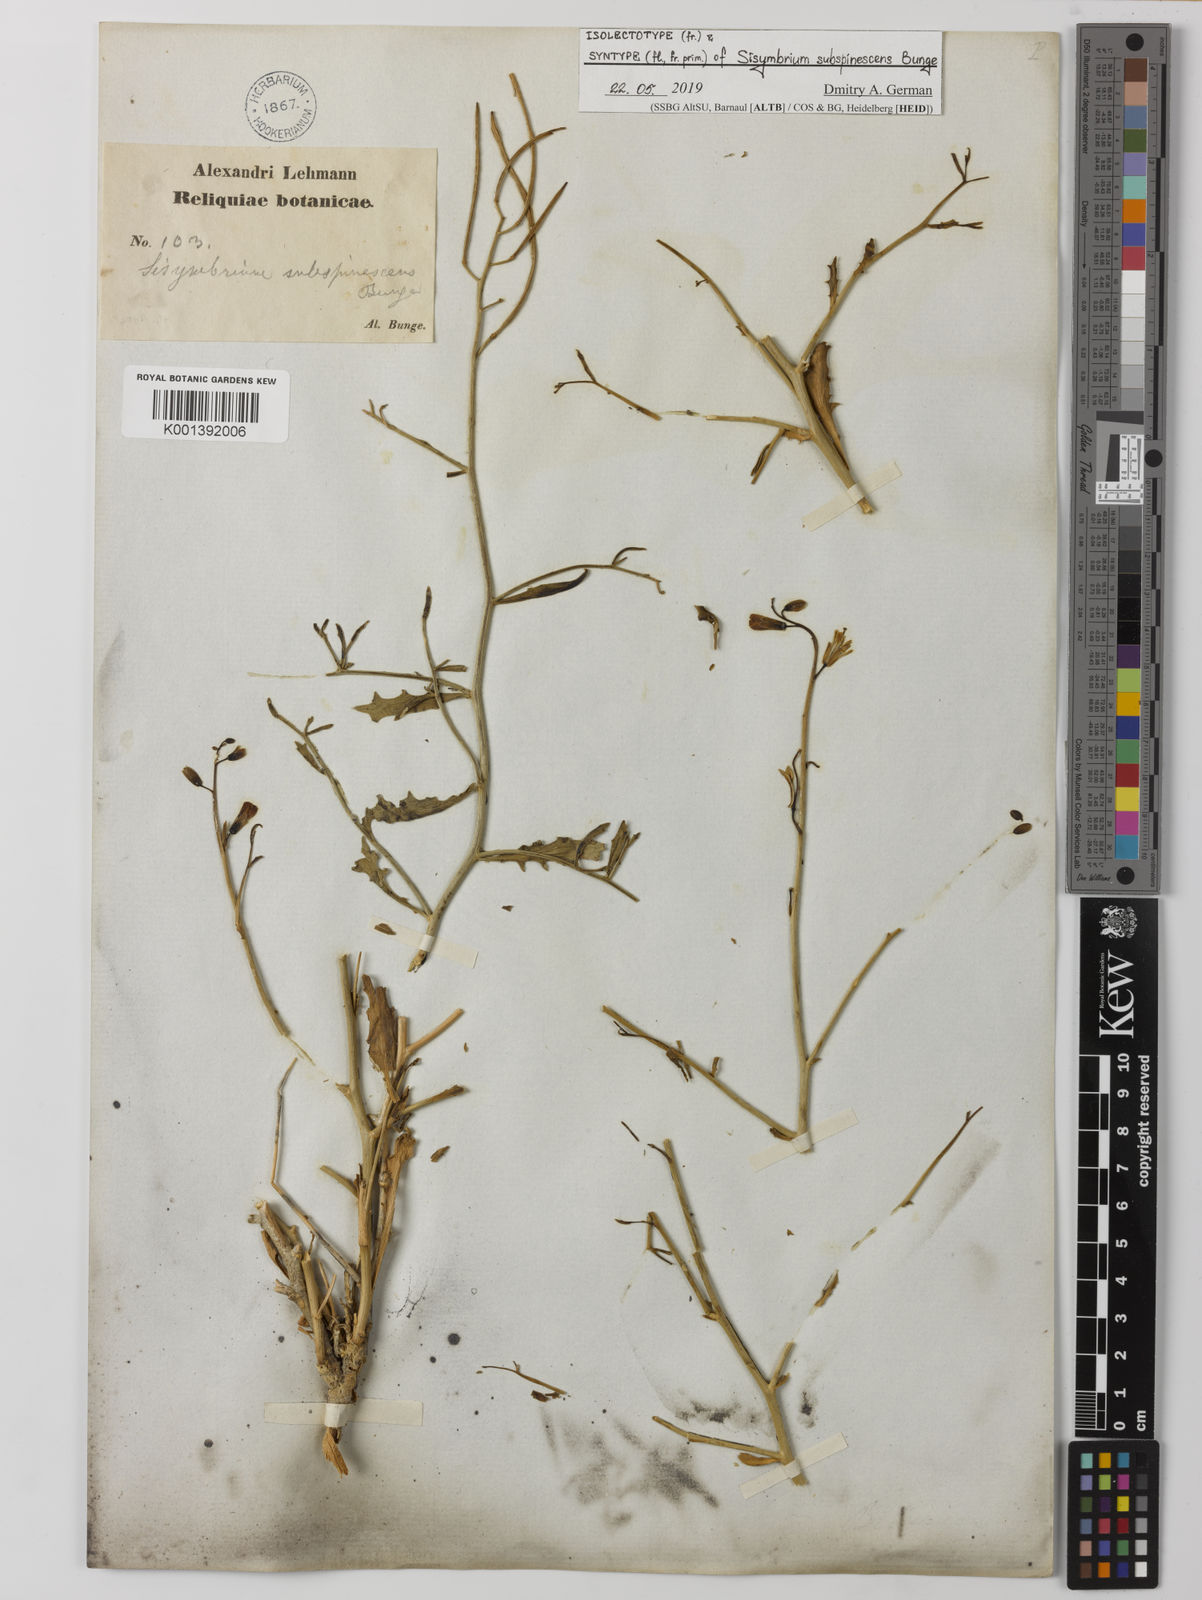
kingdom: Plantae
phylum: Tracheophyta
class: Magnoliopsida
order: Brassicales
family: Brassicaceae
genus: Sisymbrium
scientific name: Sisymbrium subspinescens
